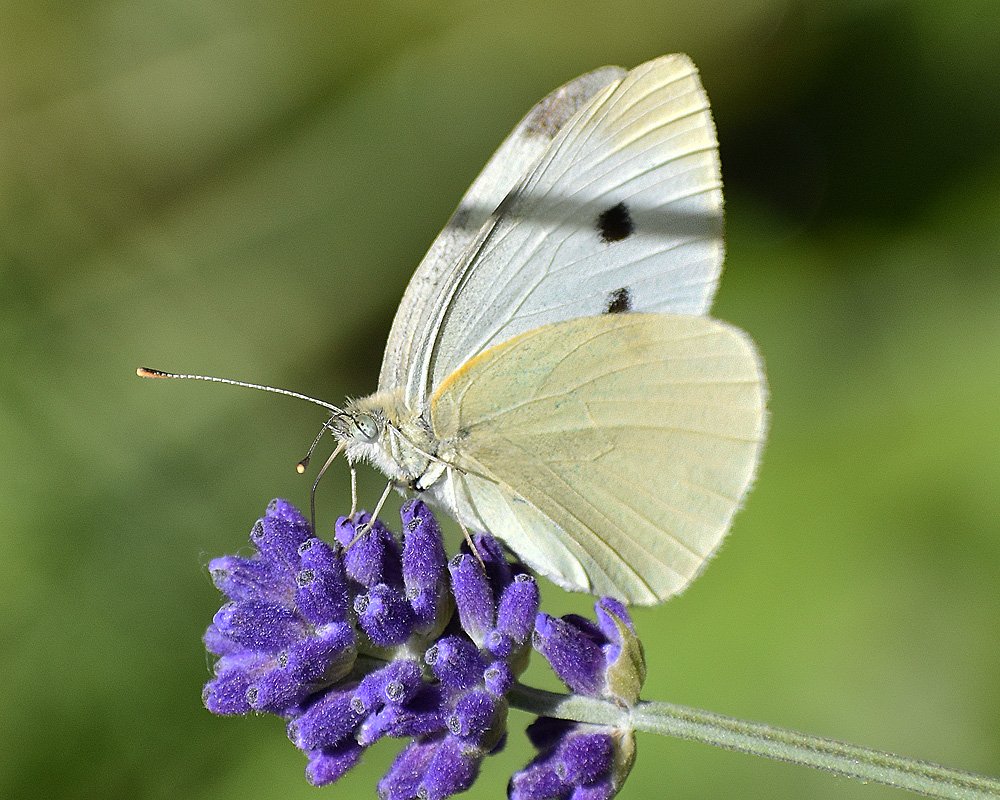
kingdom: Animalia
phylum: Arthropoda
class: Insecta
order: Lepidoptera
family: Pieridae
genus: Pieris
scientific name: Pieris rapae
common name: Cabbage White
